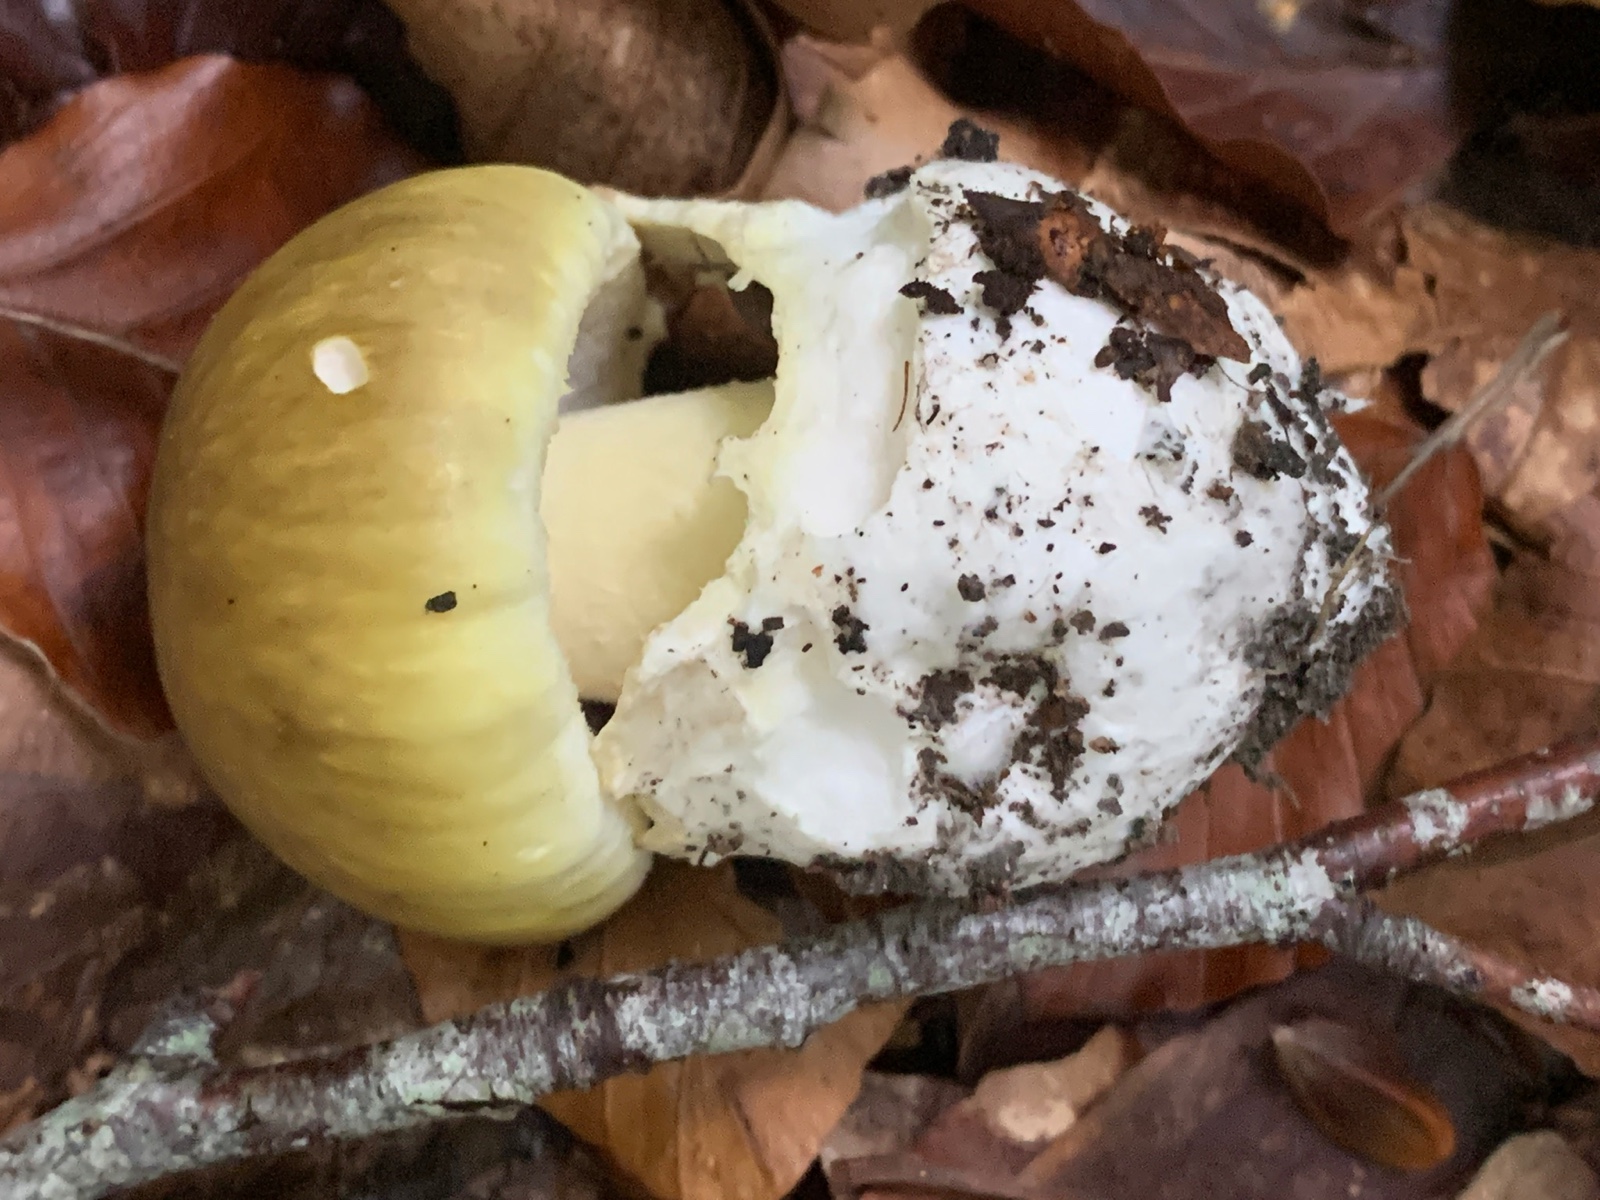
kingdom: Fungi
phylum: Basidiomycota
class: Agaricomycetes
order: Agaricales
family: Amanitaceae
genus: Amanita
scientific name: Amanita phalloides
